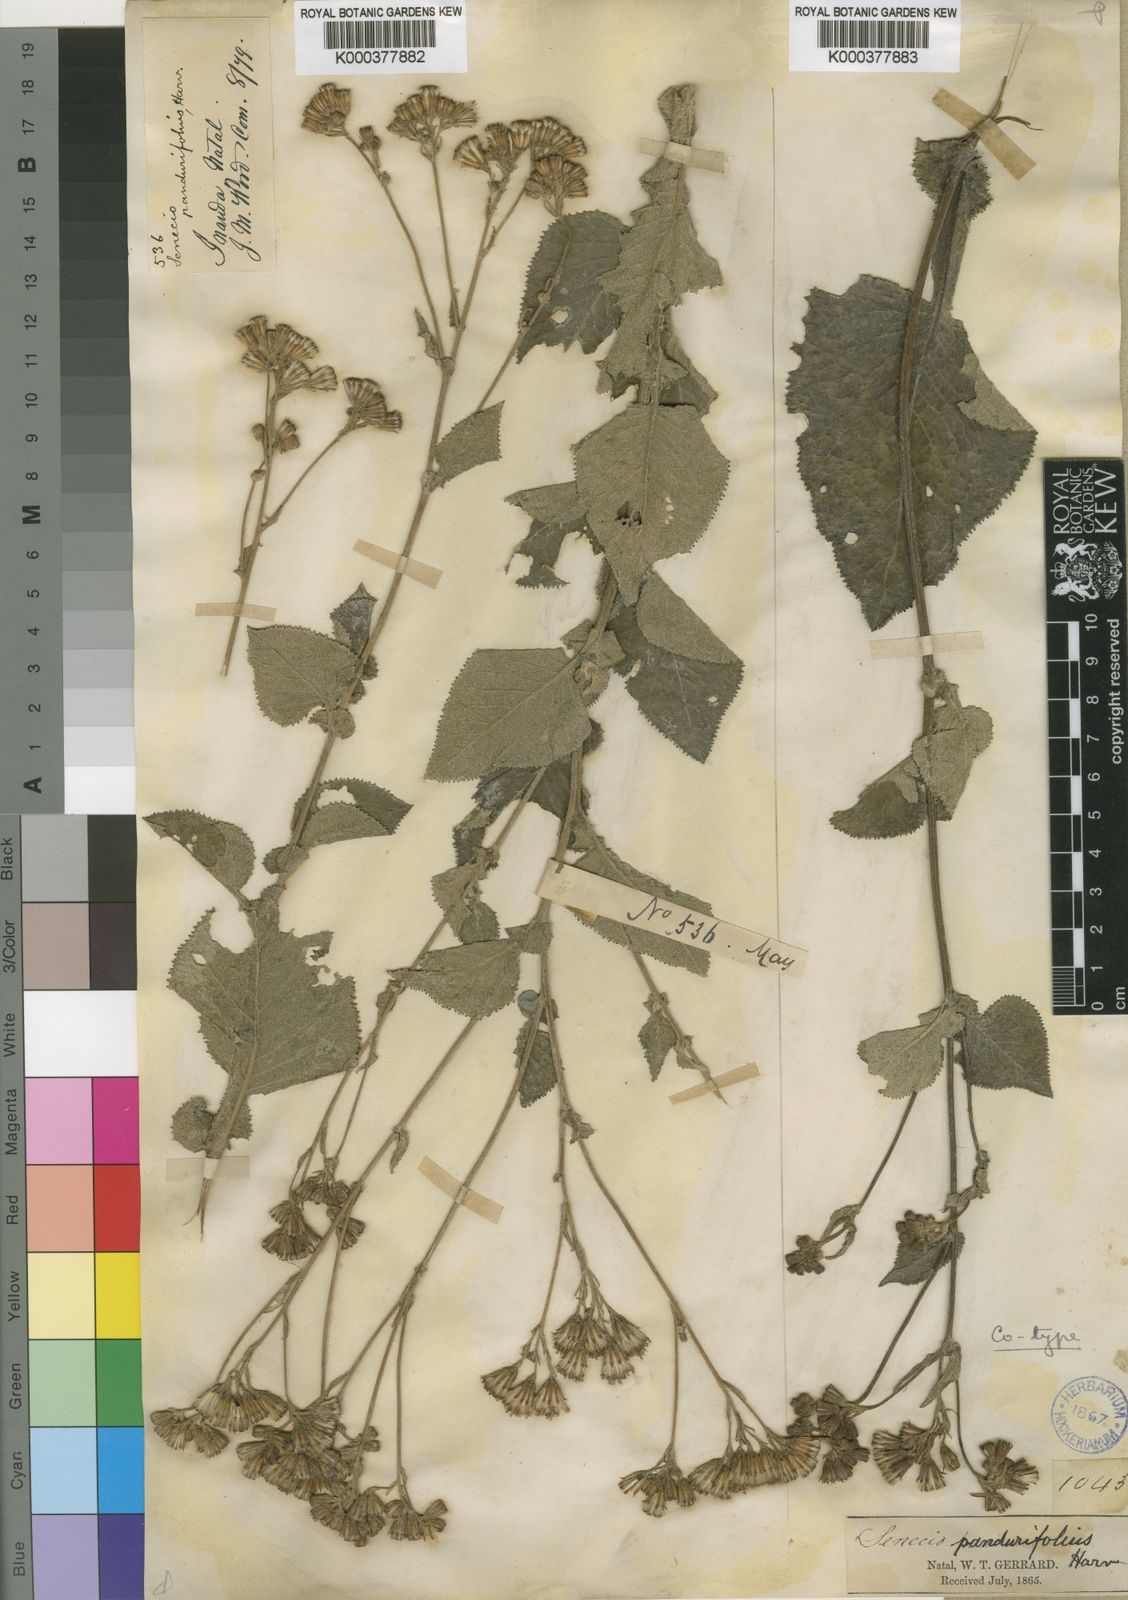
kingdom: Plantae
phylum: Tracheophyta
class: Magnoliopsida
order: Asterales
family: Asteraceae
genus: Senecio
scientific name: Senecio panduriformis
